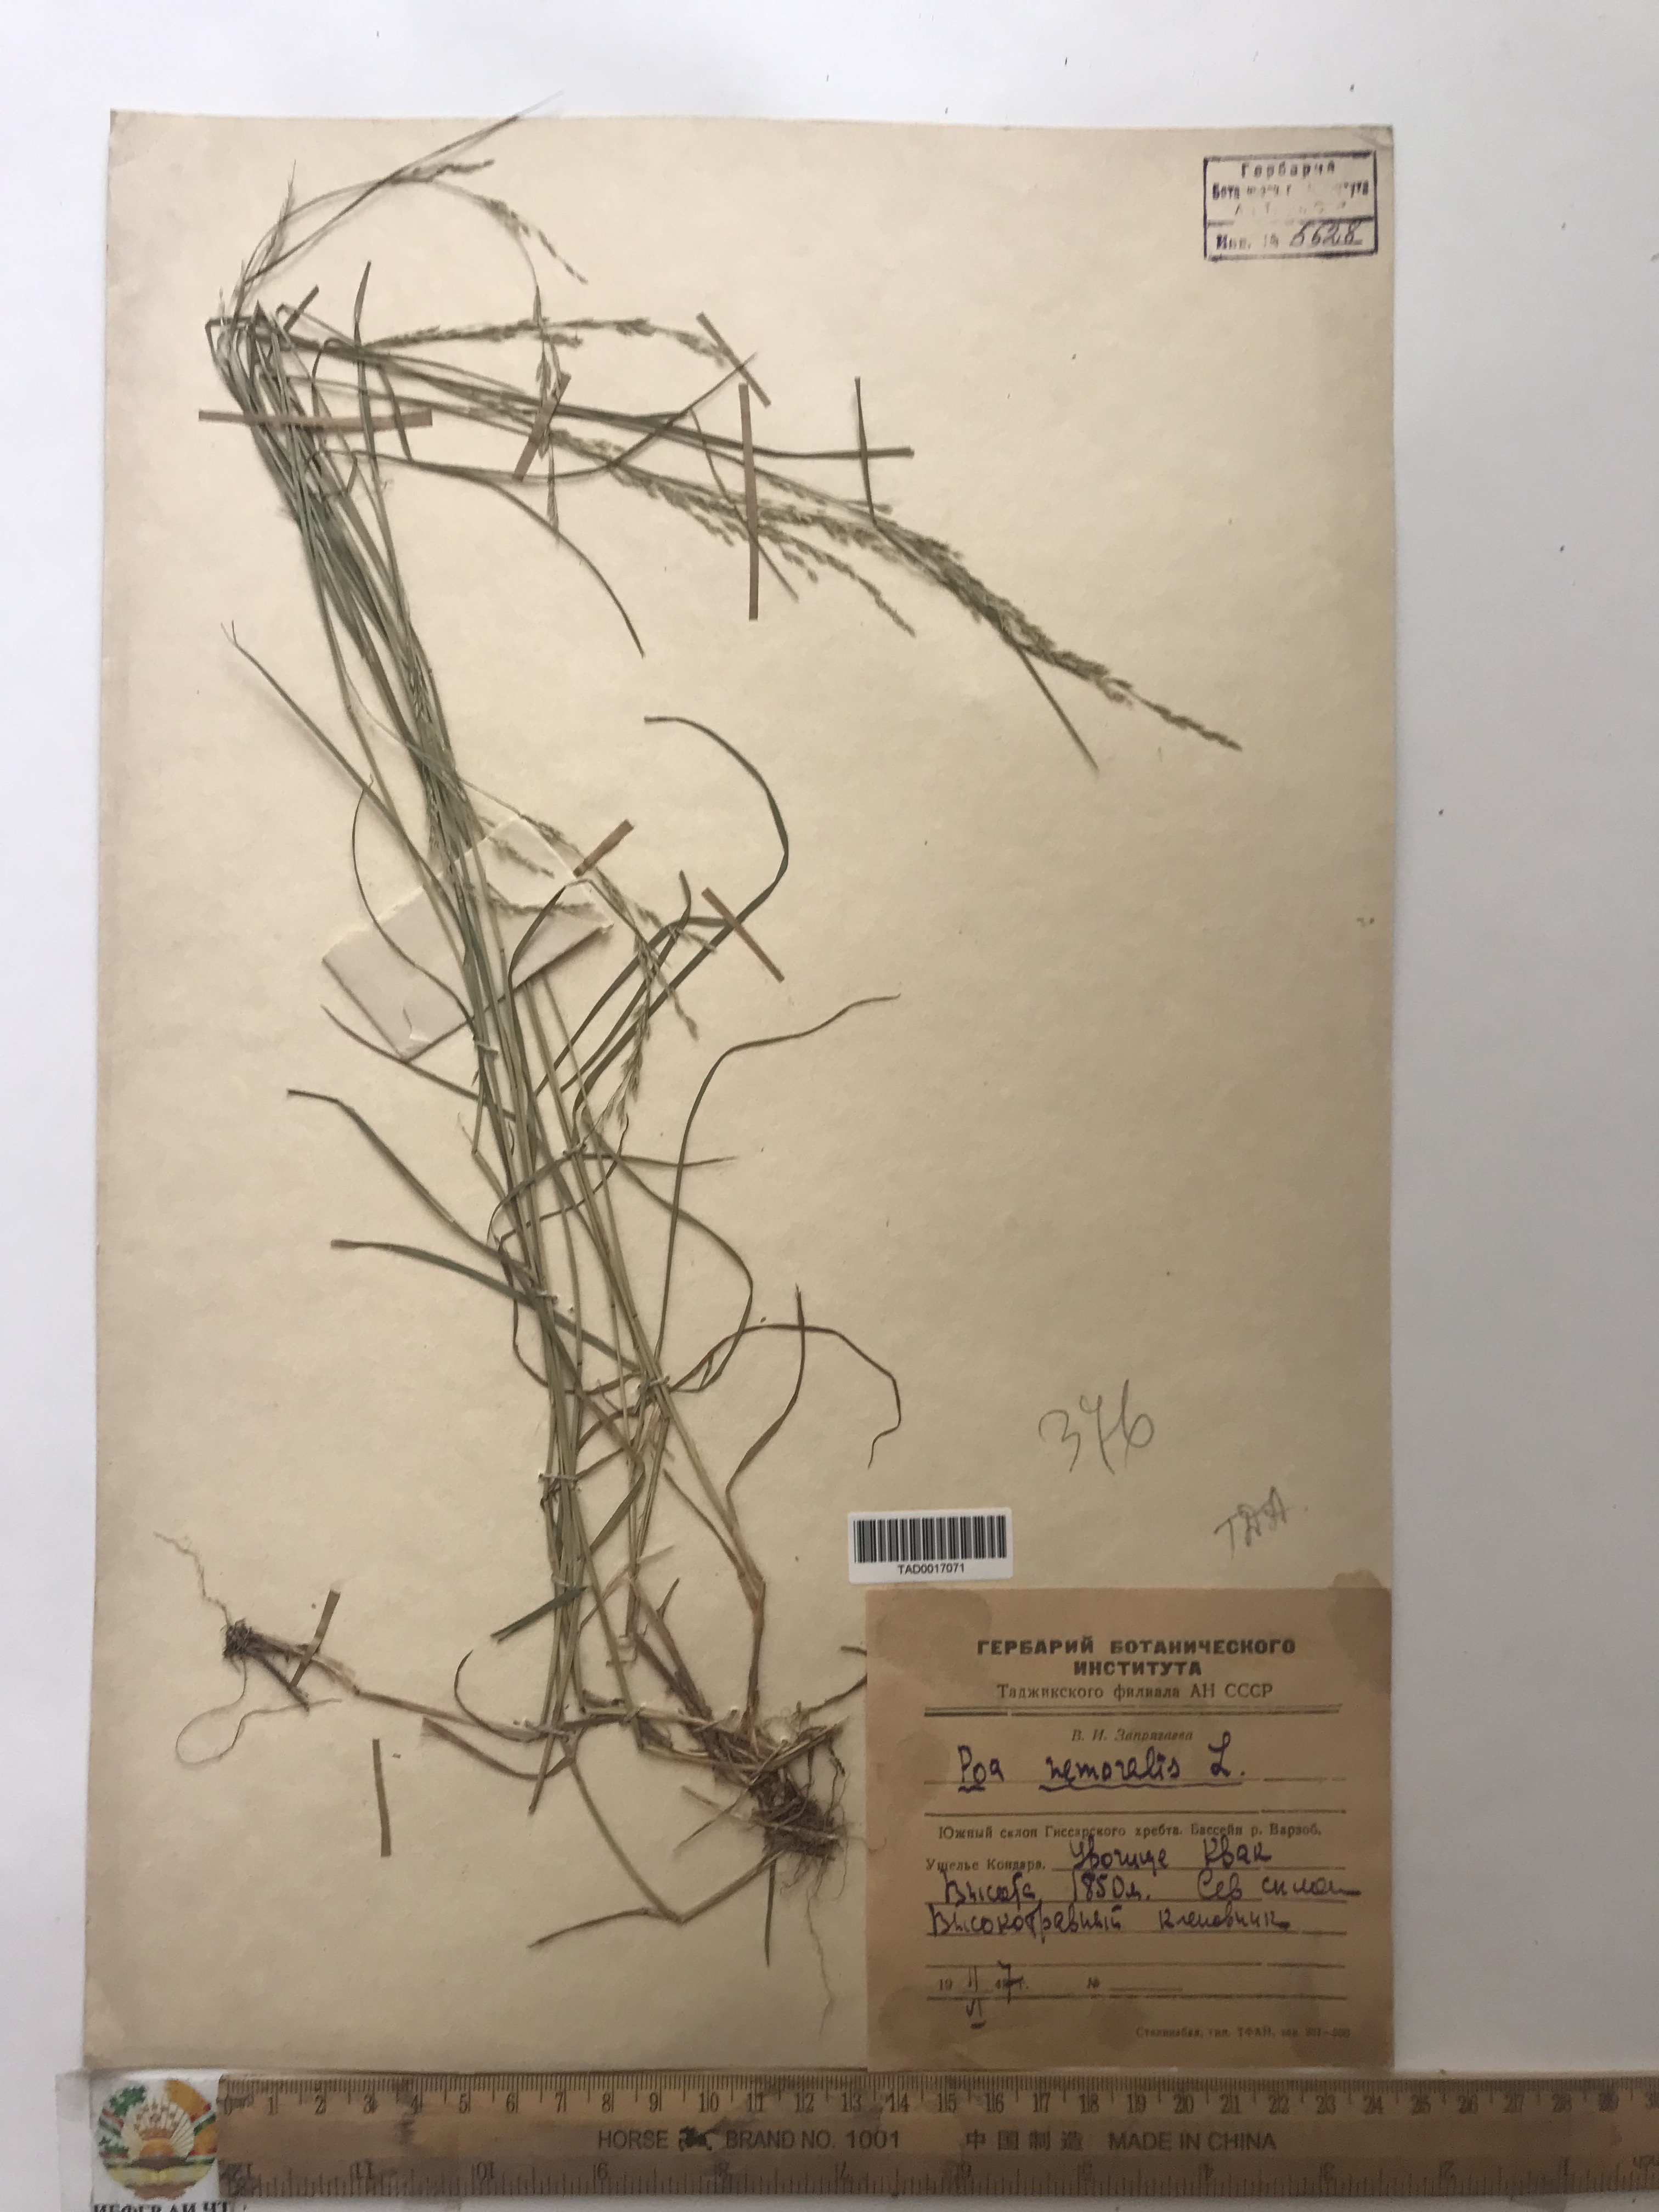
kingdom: Plantae
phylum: Tracheophyta
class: Liliopsida
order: Poales
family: Poaceae
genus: Poa
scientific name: Poa nemoralis
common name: Wood bluegrass
